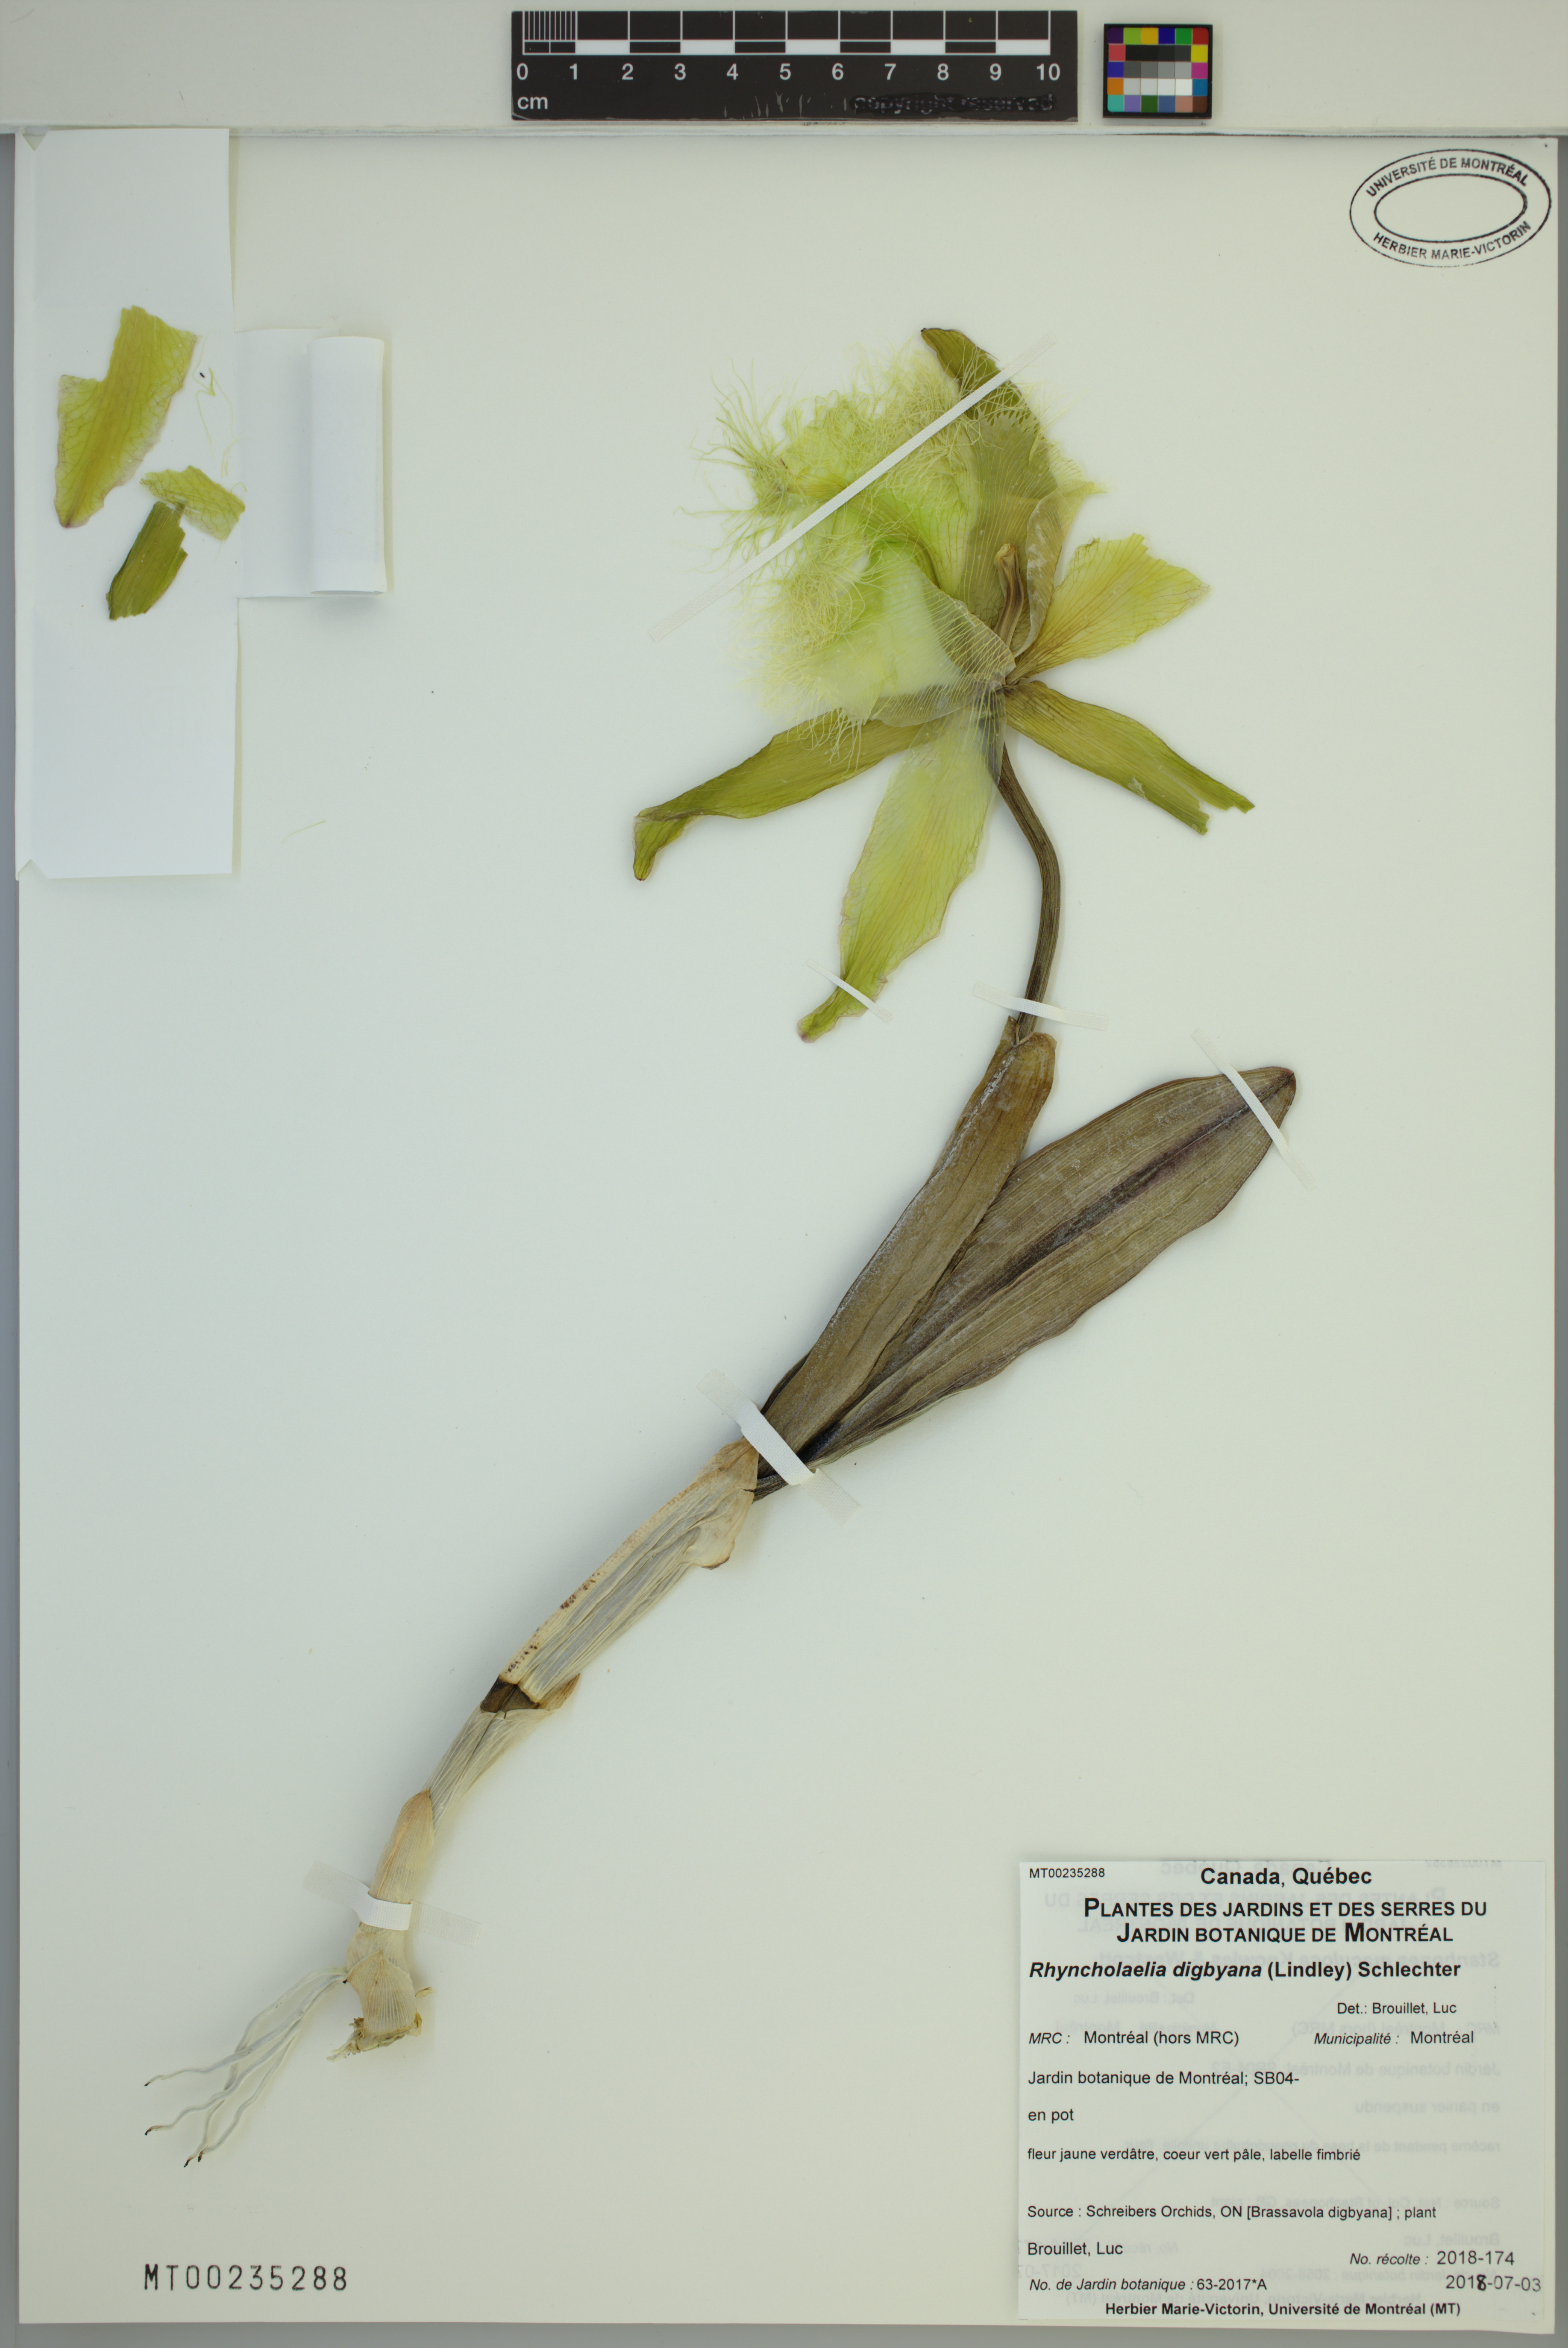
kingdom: Plantae
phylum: Tracheophyta
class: Liliopsida
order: Asparagales
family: Orchidaceae
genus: Rhyncholaelia
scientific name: Rhyncholaelia digbyana
